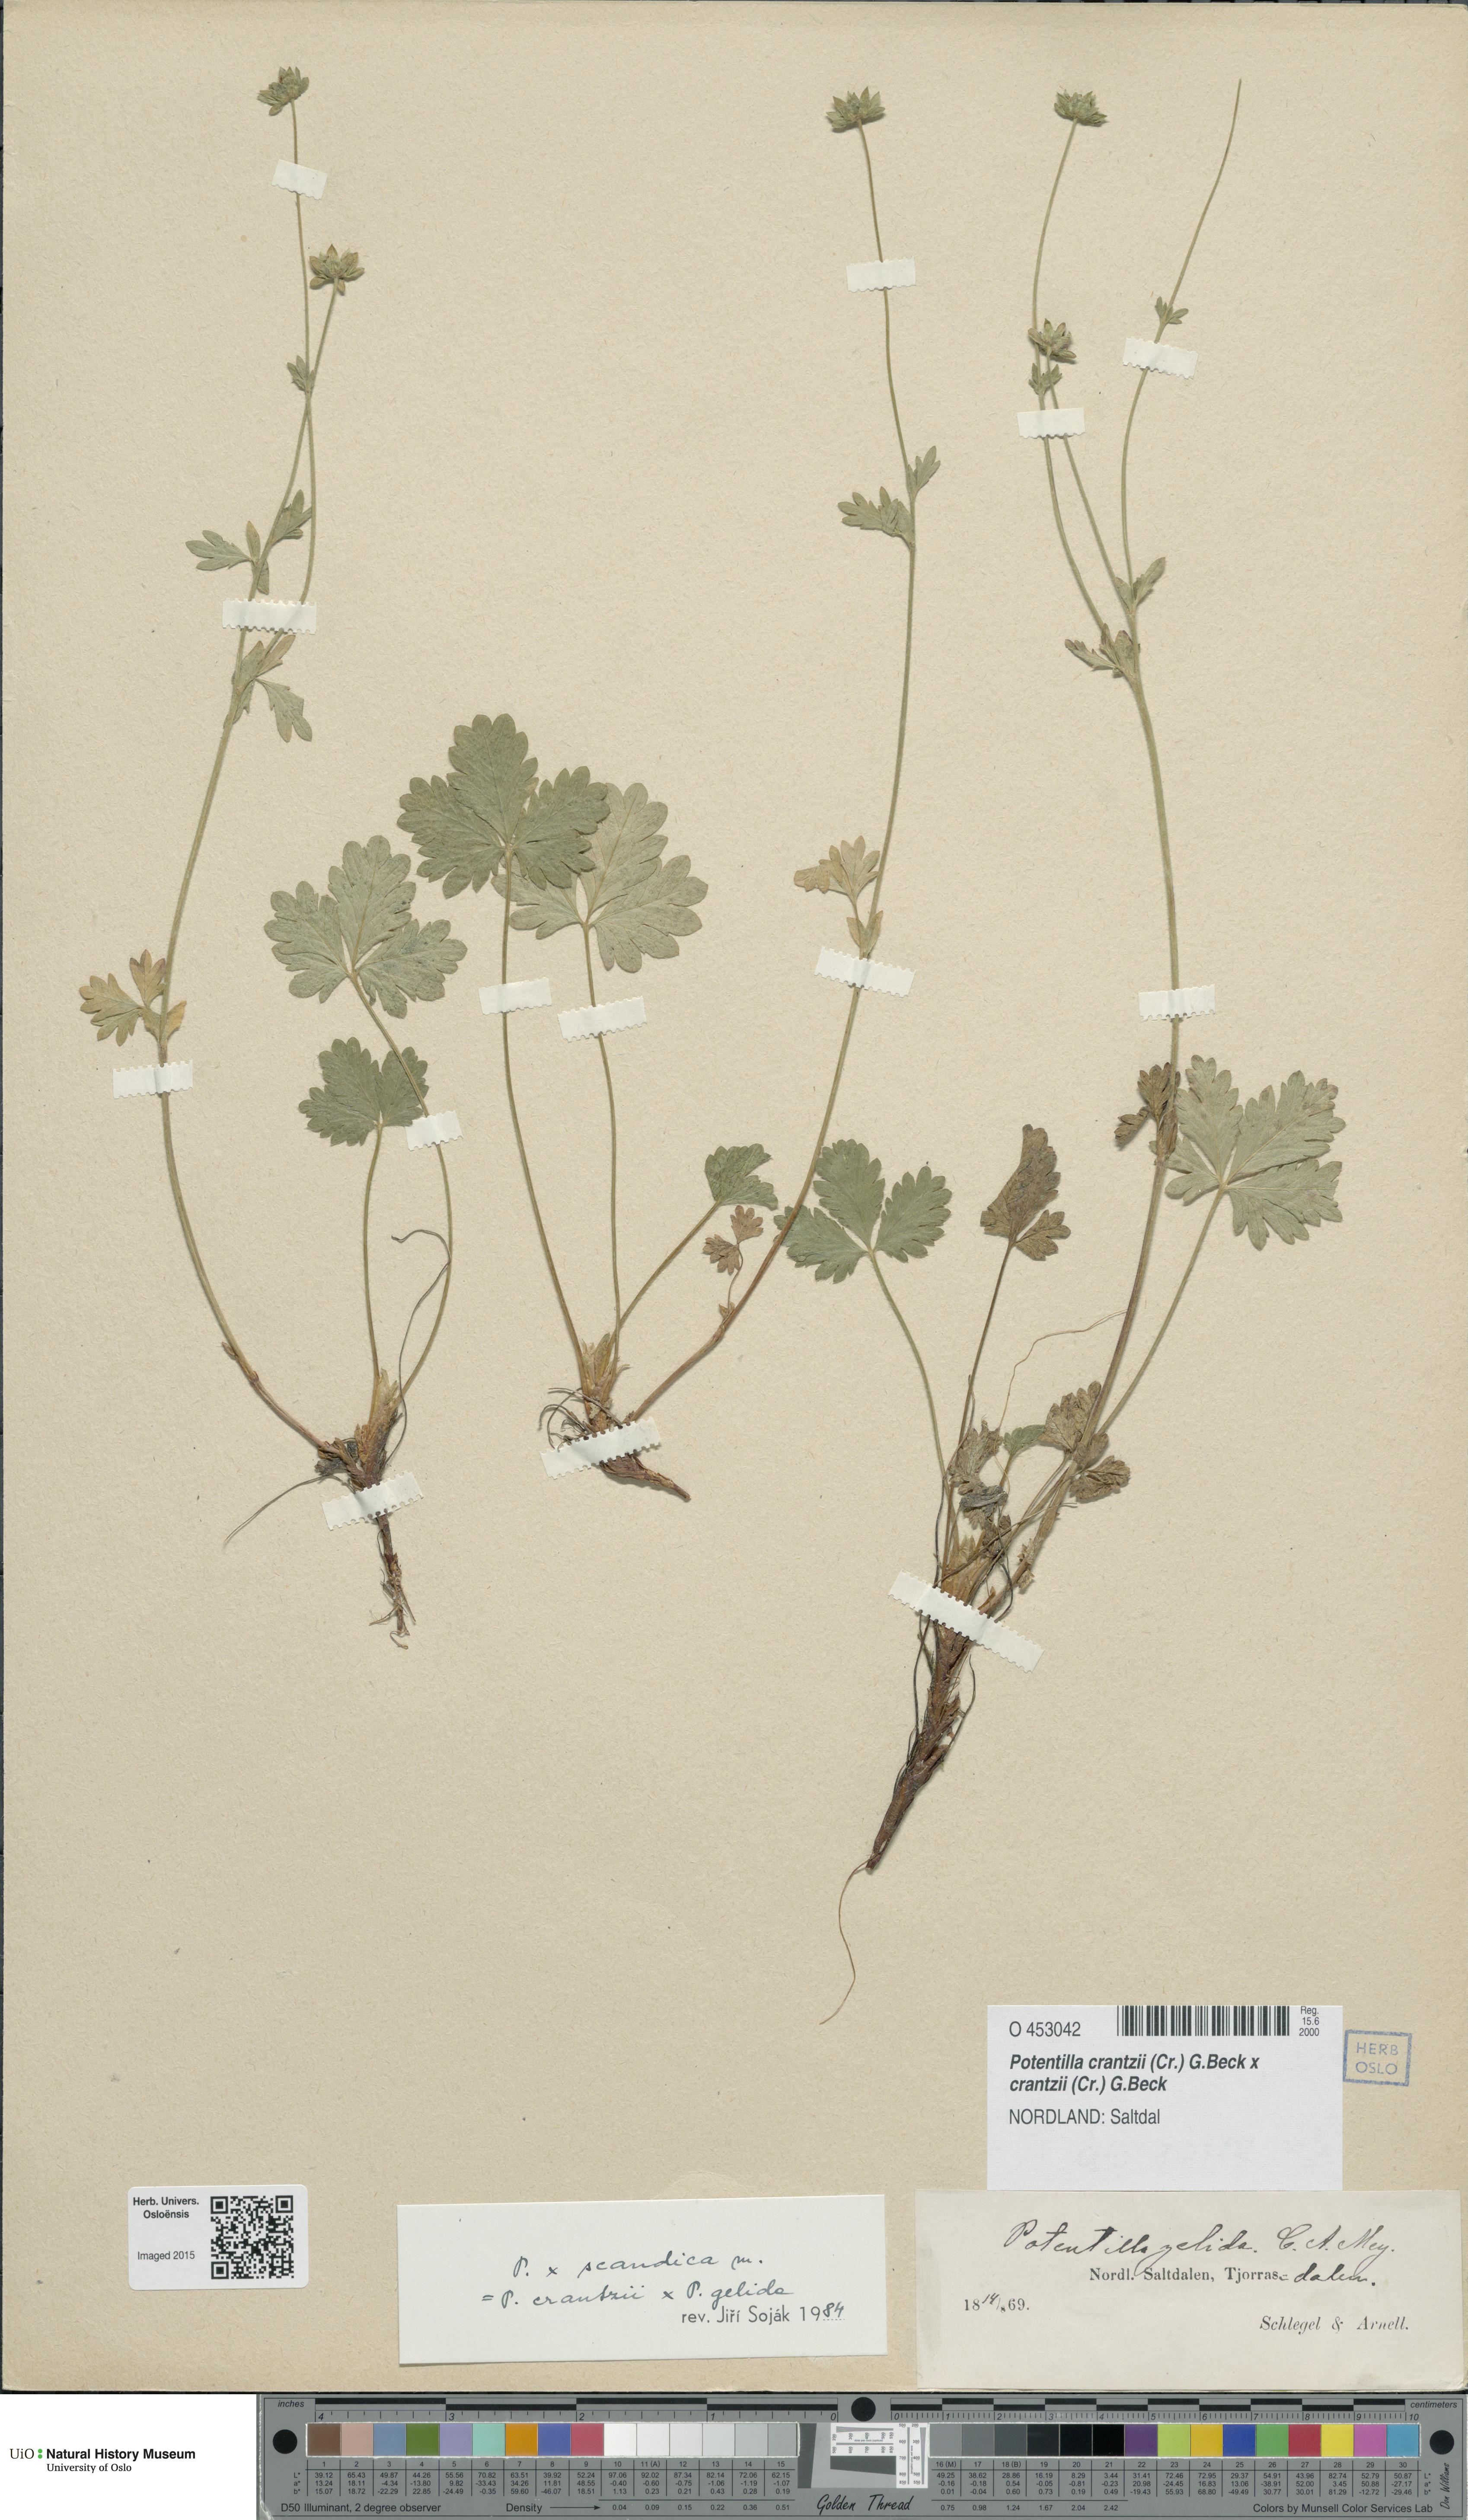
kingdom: Plantae
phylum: Tracheophyta
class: Magnoliopsida
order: Rosales
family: Rosaceae
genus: Potentilla
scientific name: Potentilla
